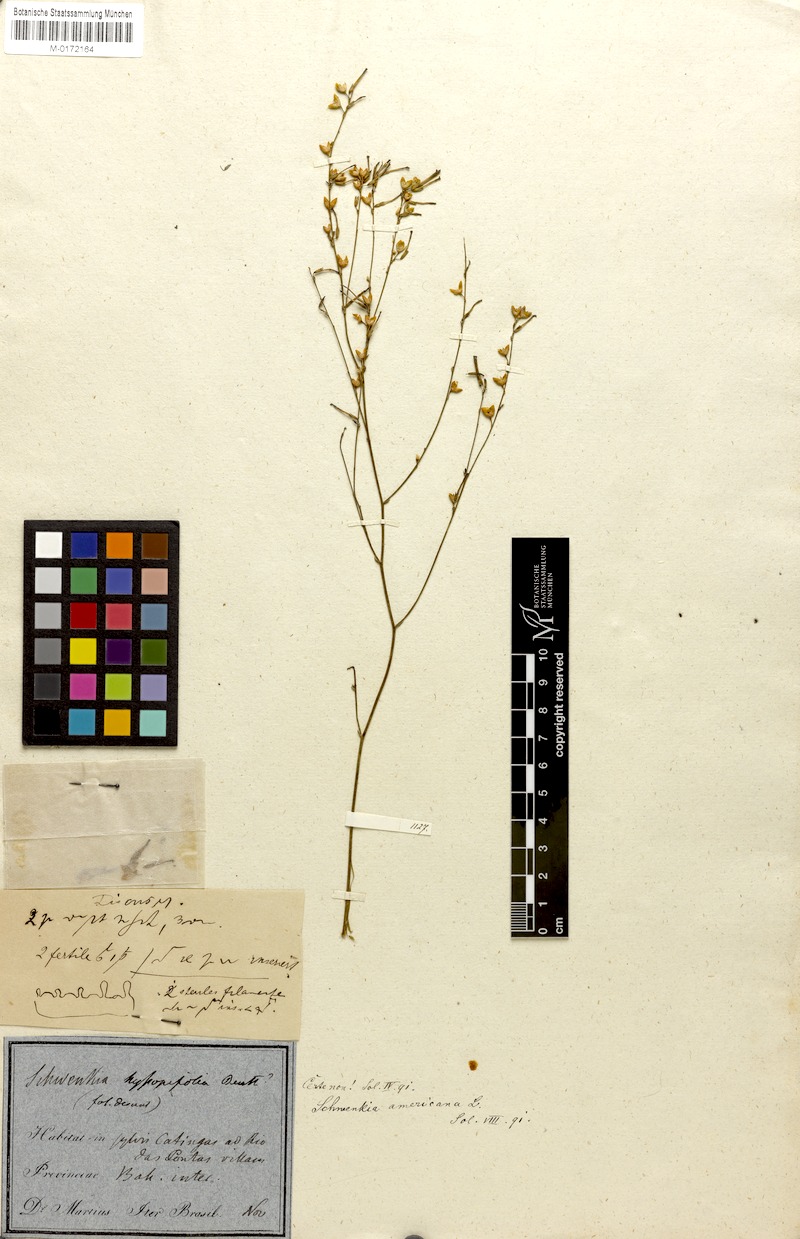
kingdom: Plantae
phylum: Tracheophyta
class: Magnoliopsida
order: Solanales
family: Solanaceae
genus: Schwenckia
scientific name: Schwenckia americana
